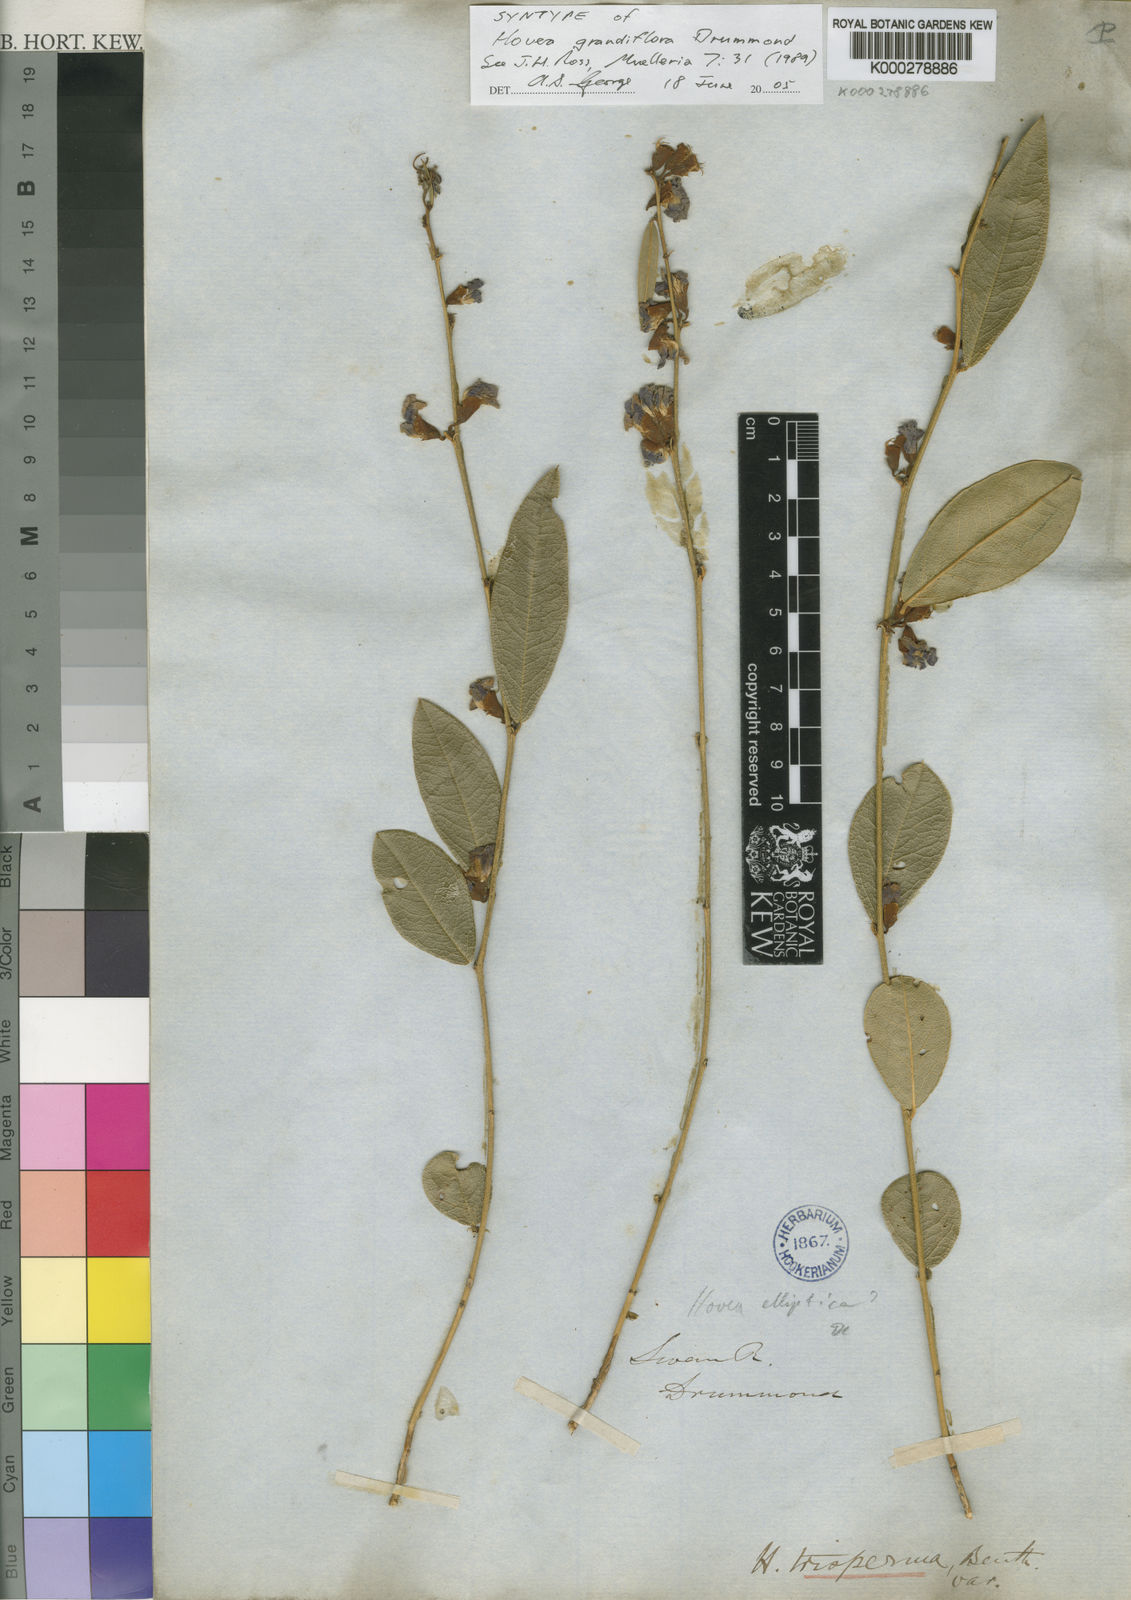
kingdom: Plantae
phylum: Tracheophyta
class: Magnoliopsida
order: Fabales
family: Fabaceae
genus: Hovea
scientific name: Hovea trisperma
